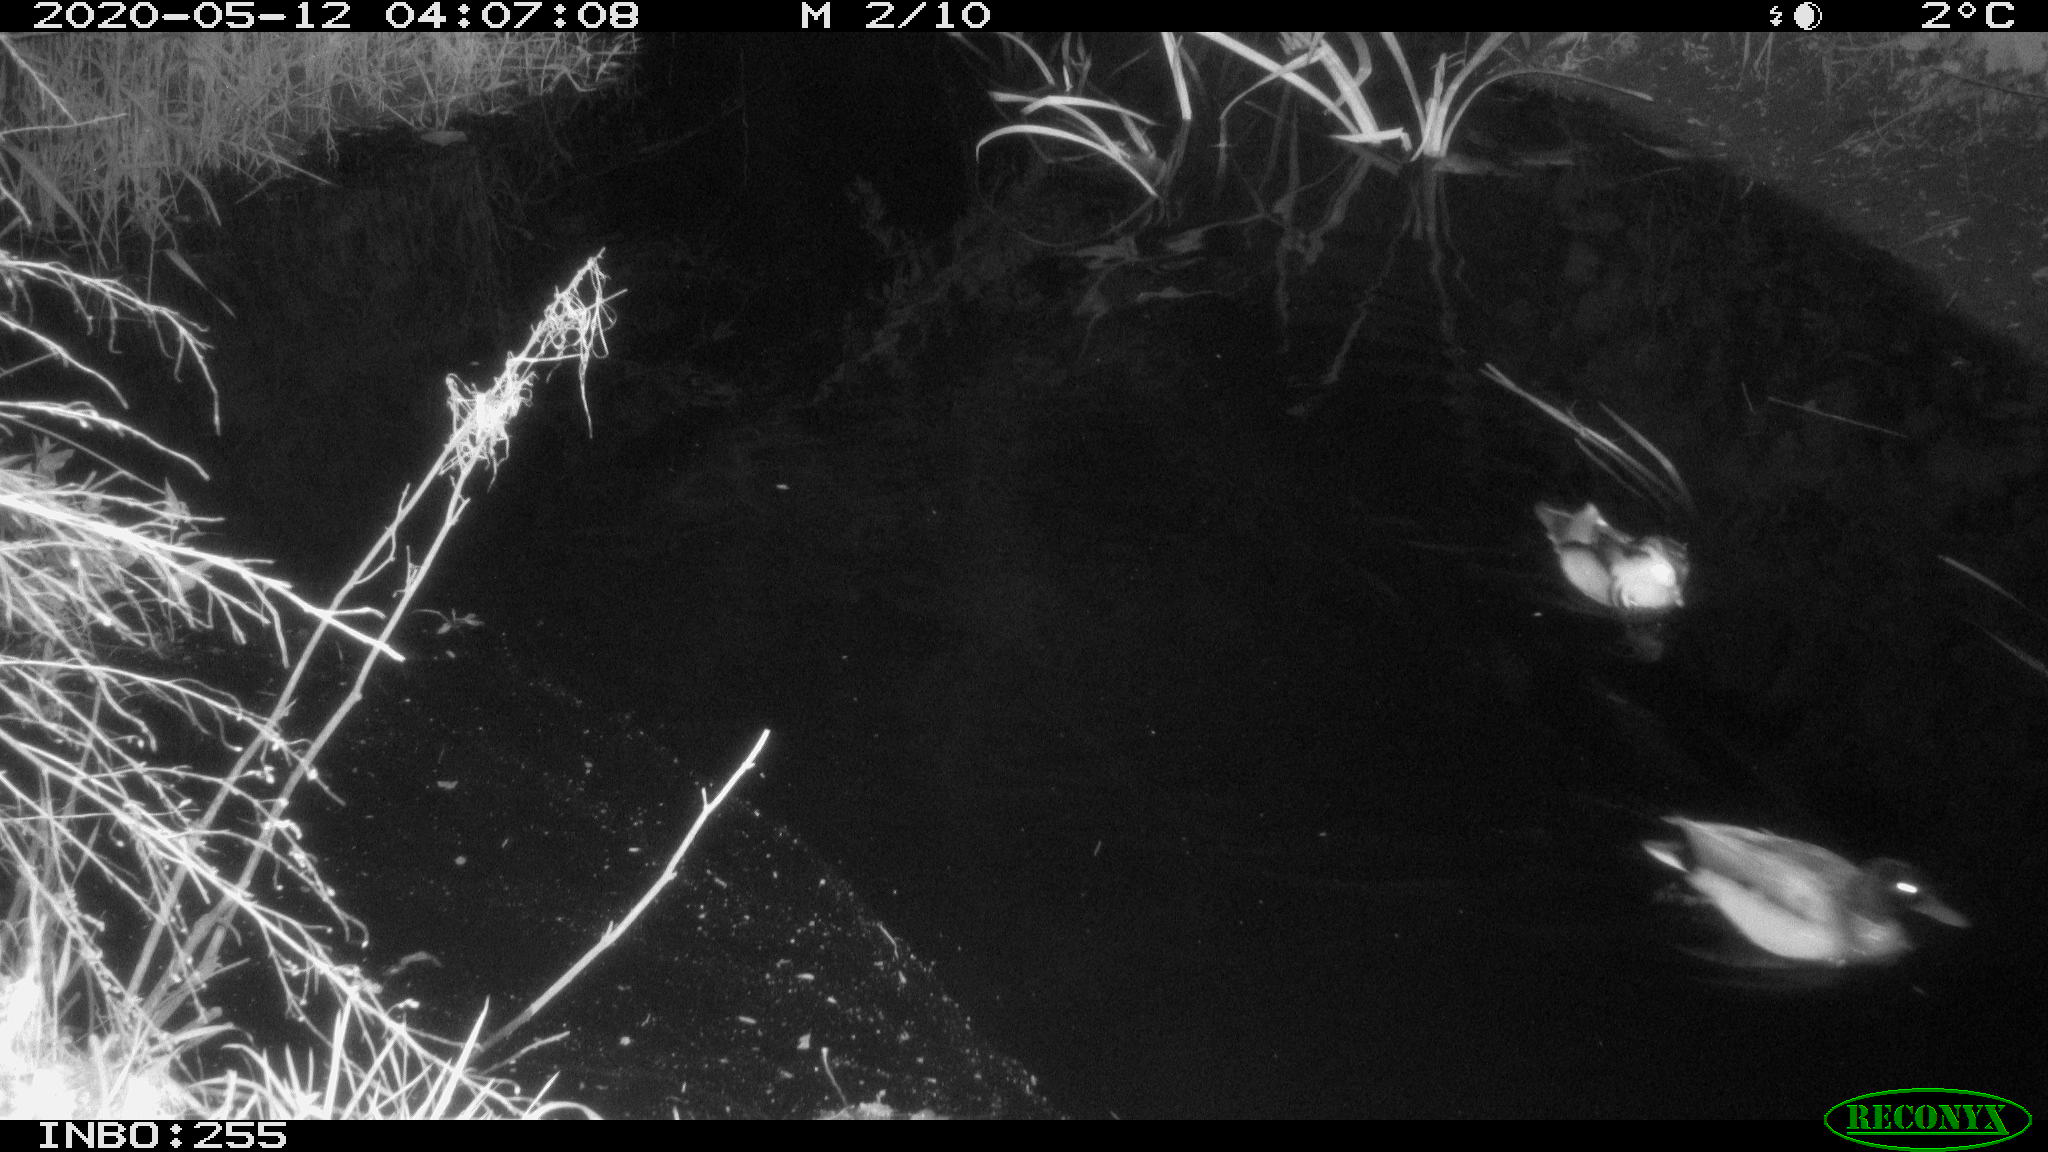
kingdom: Animalia
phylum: Chordata
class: Aves
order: Anseriformes
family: Anatidae
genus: Anas
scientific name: Anas platyrhynchos
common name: Mallard
